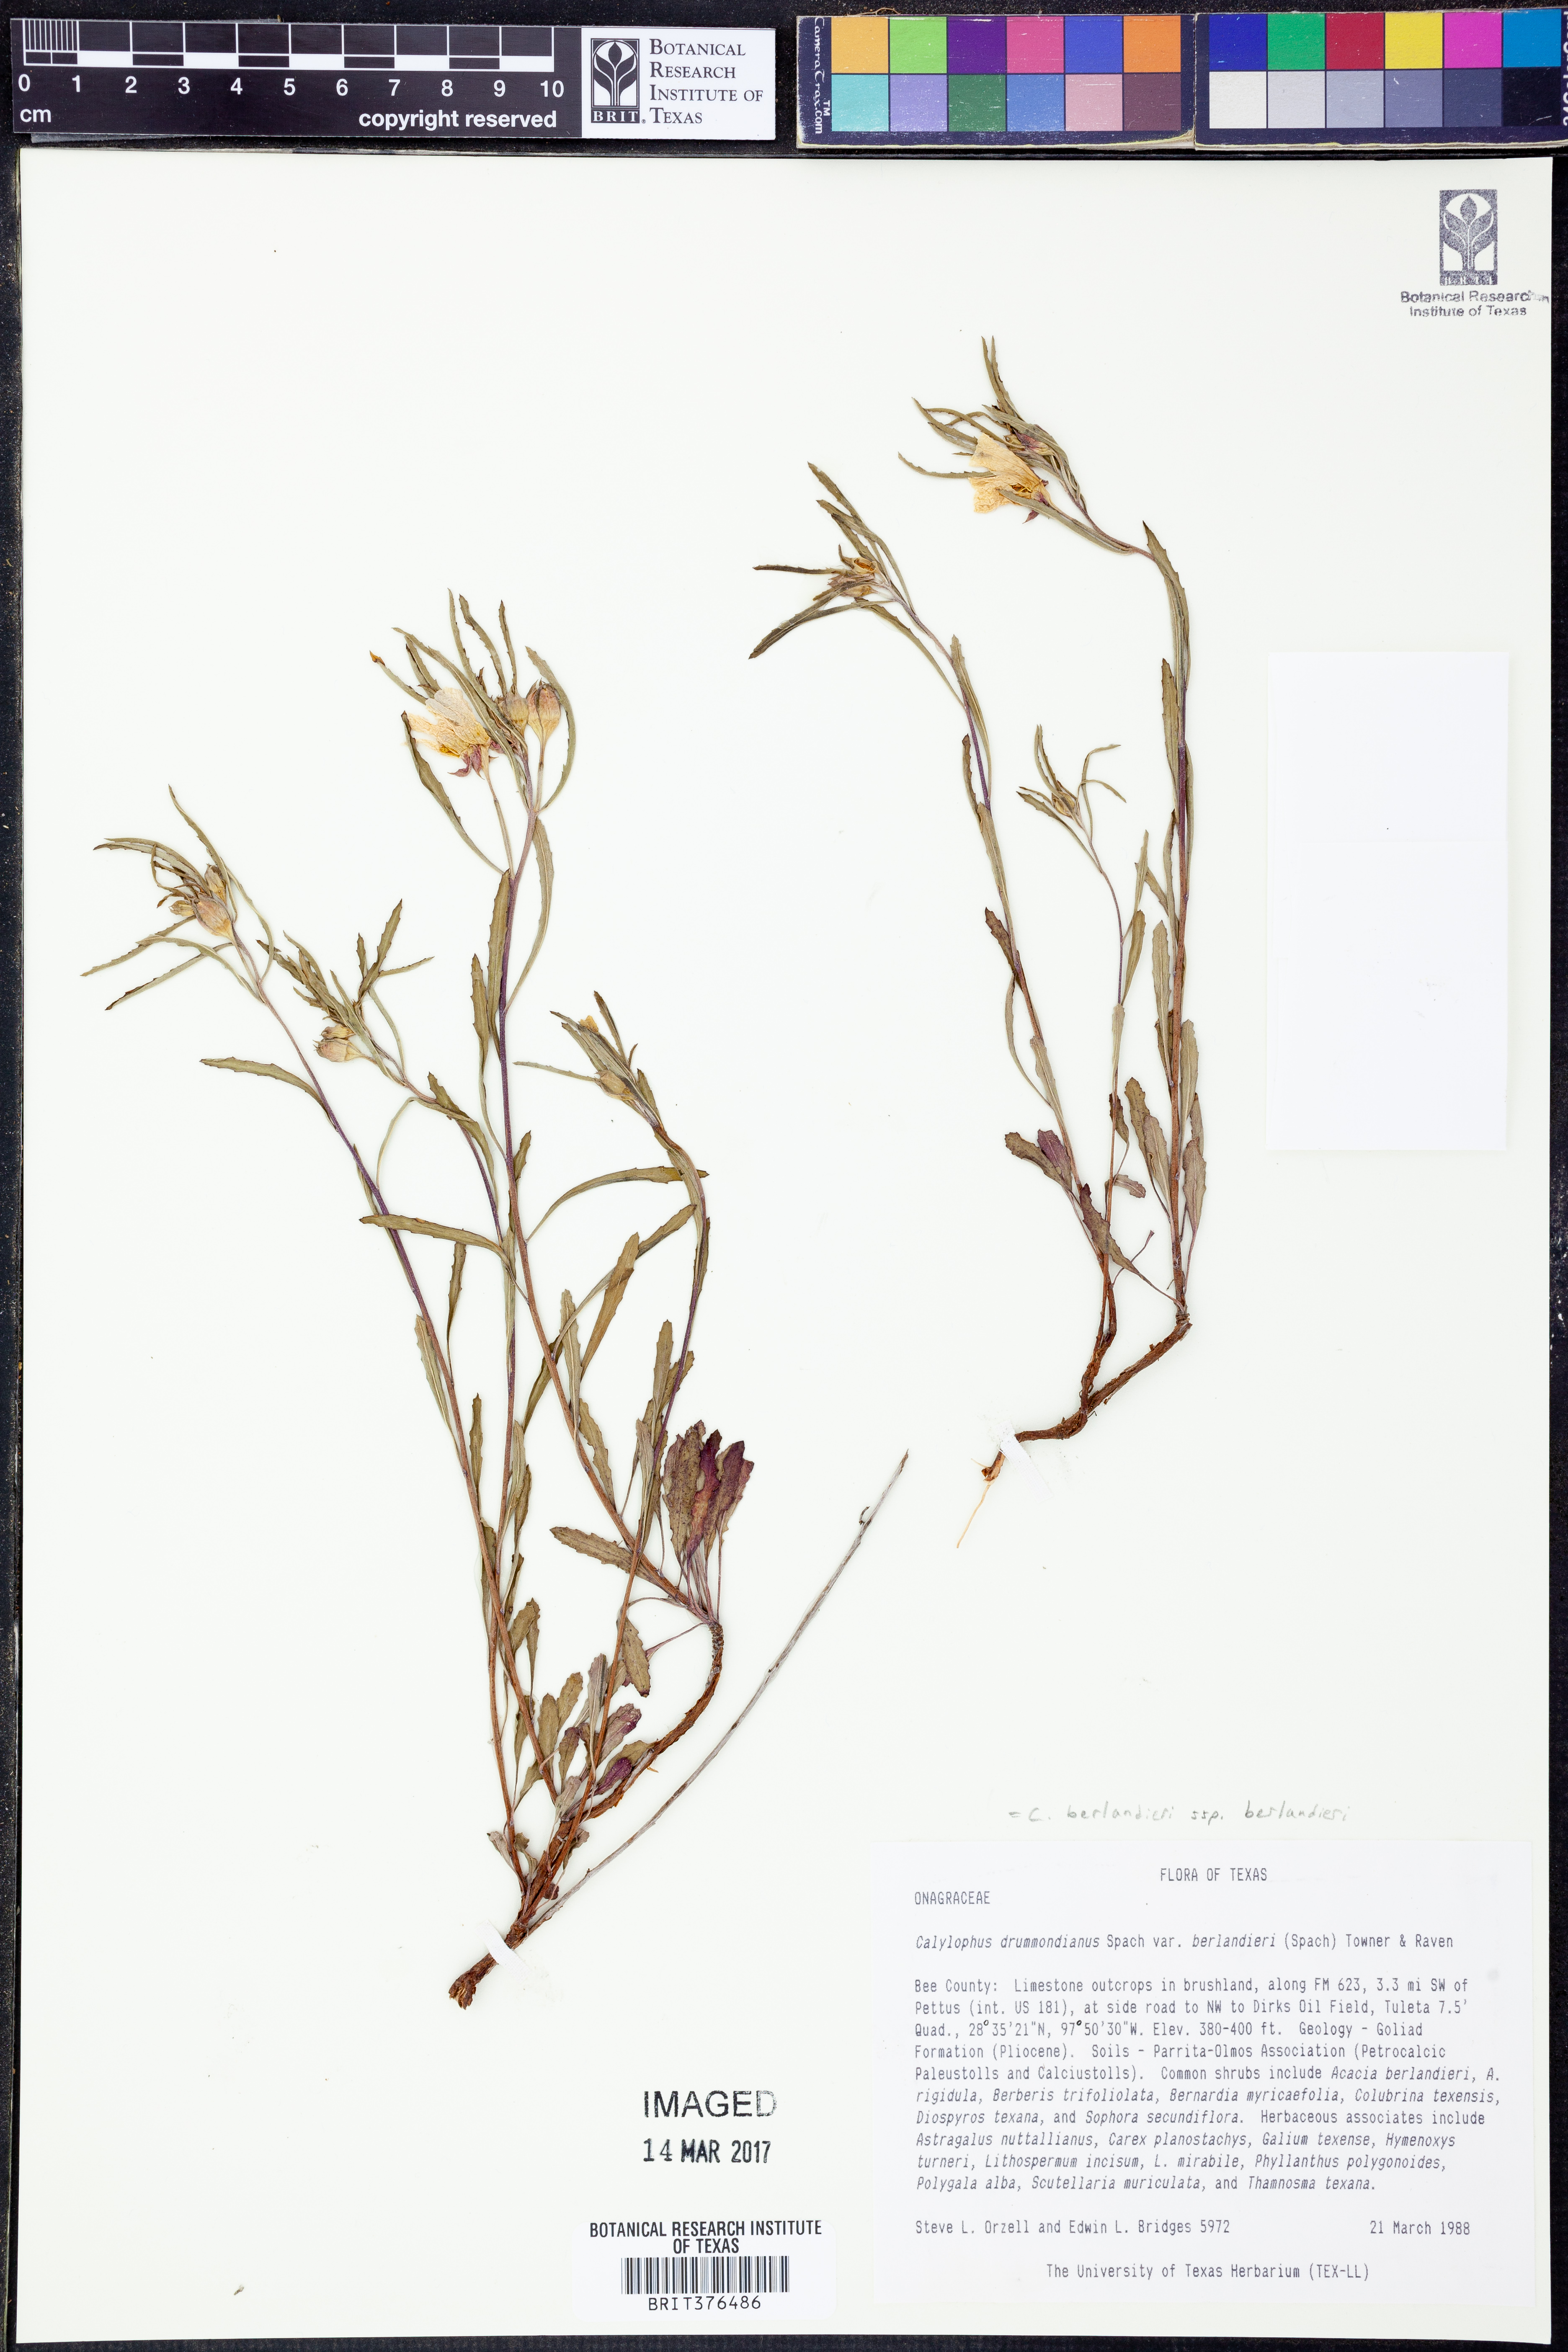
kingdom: Plantae
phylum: Tracheophyta
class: Magnoliopsida
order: Myrtales
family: Onagraceae
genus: Oenothera
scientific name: Oenothera capillifolia
